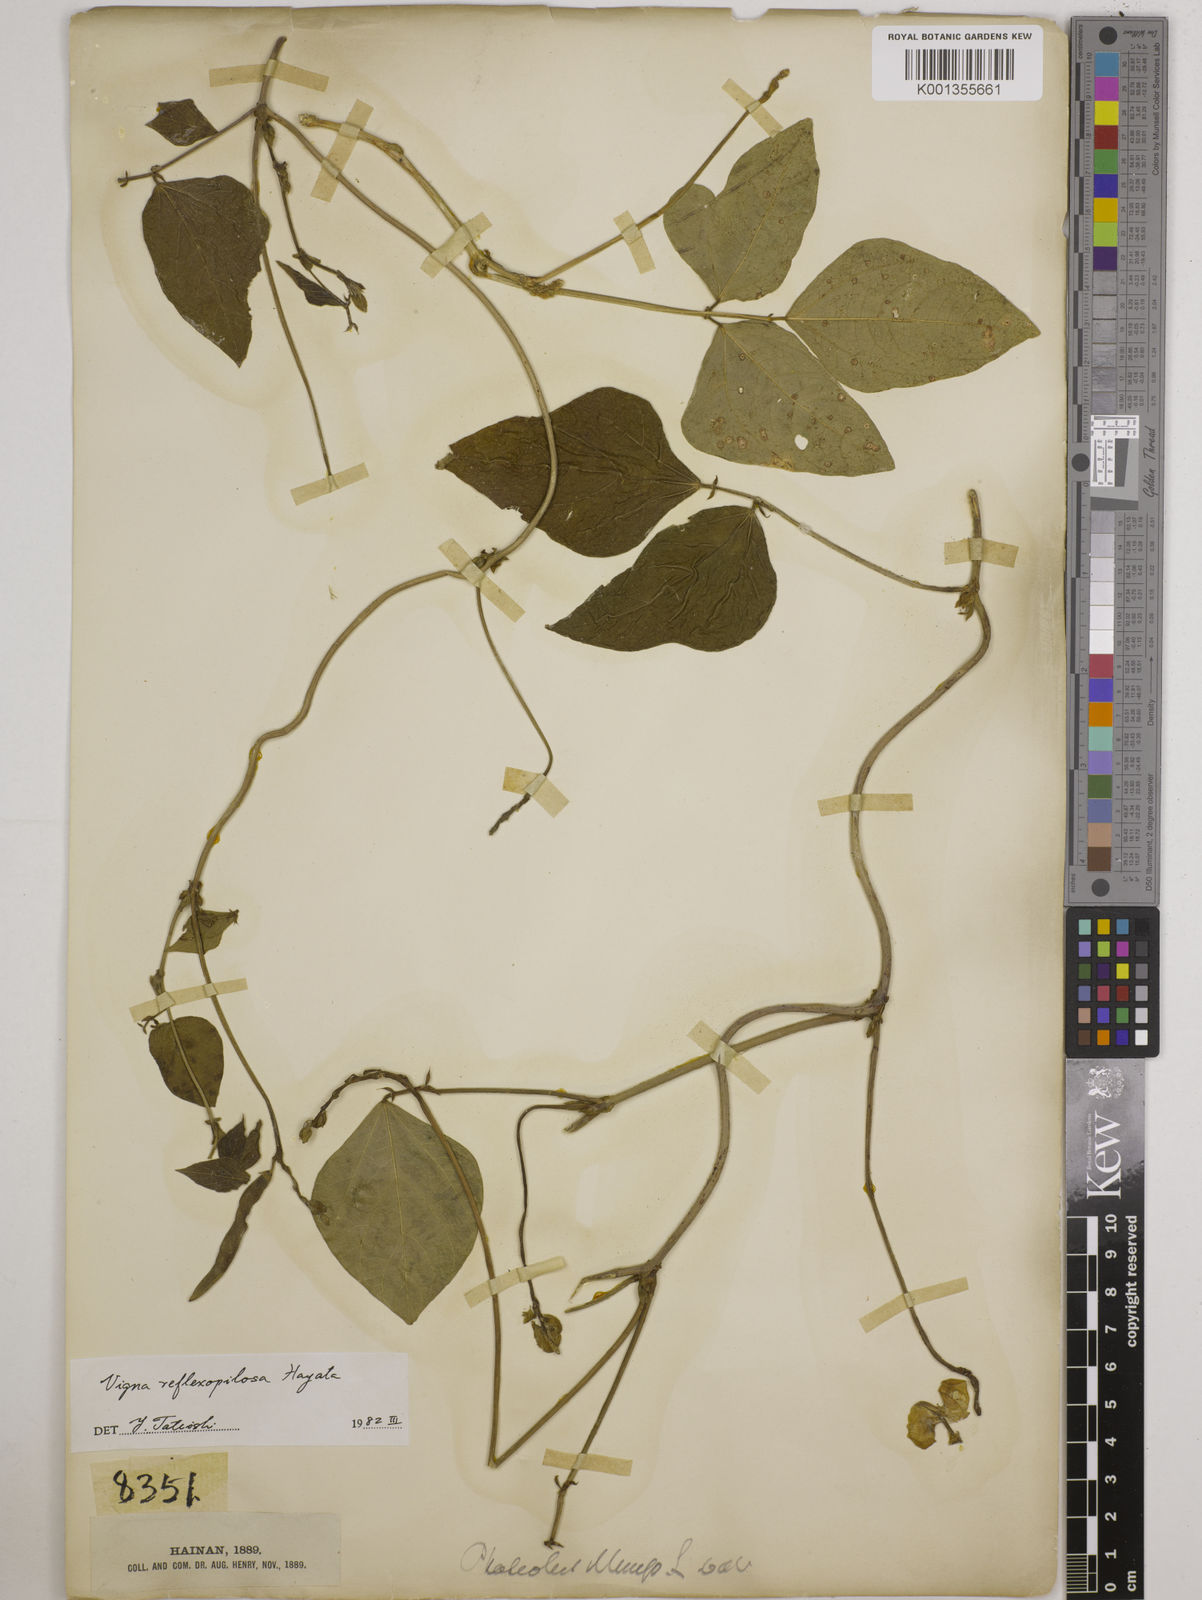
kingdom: Plantae
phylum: Tracheophyta
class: Magnoliopsida
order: Fabales
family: Fabaceae
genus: Vigna
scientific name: Vigna reflexopilosa
